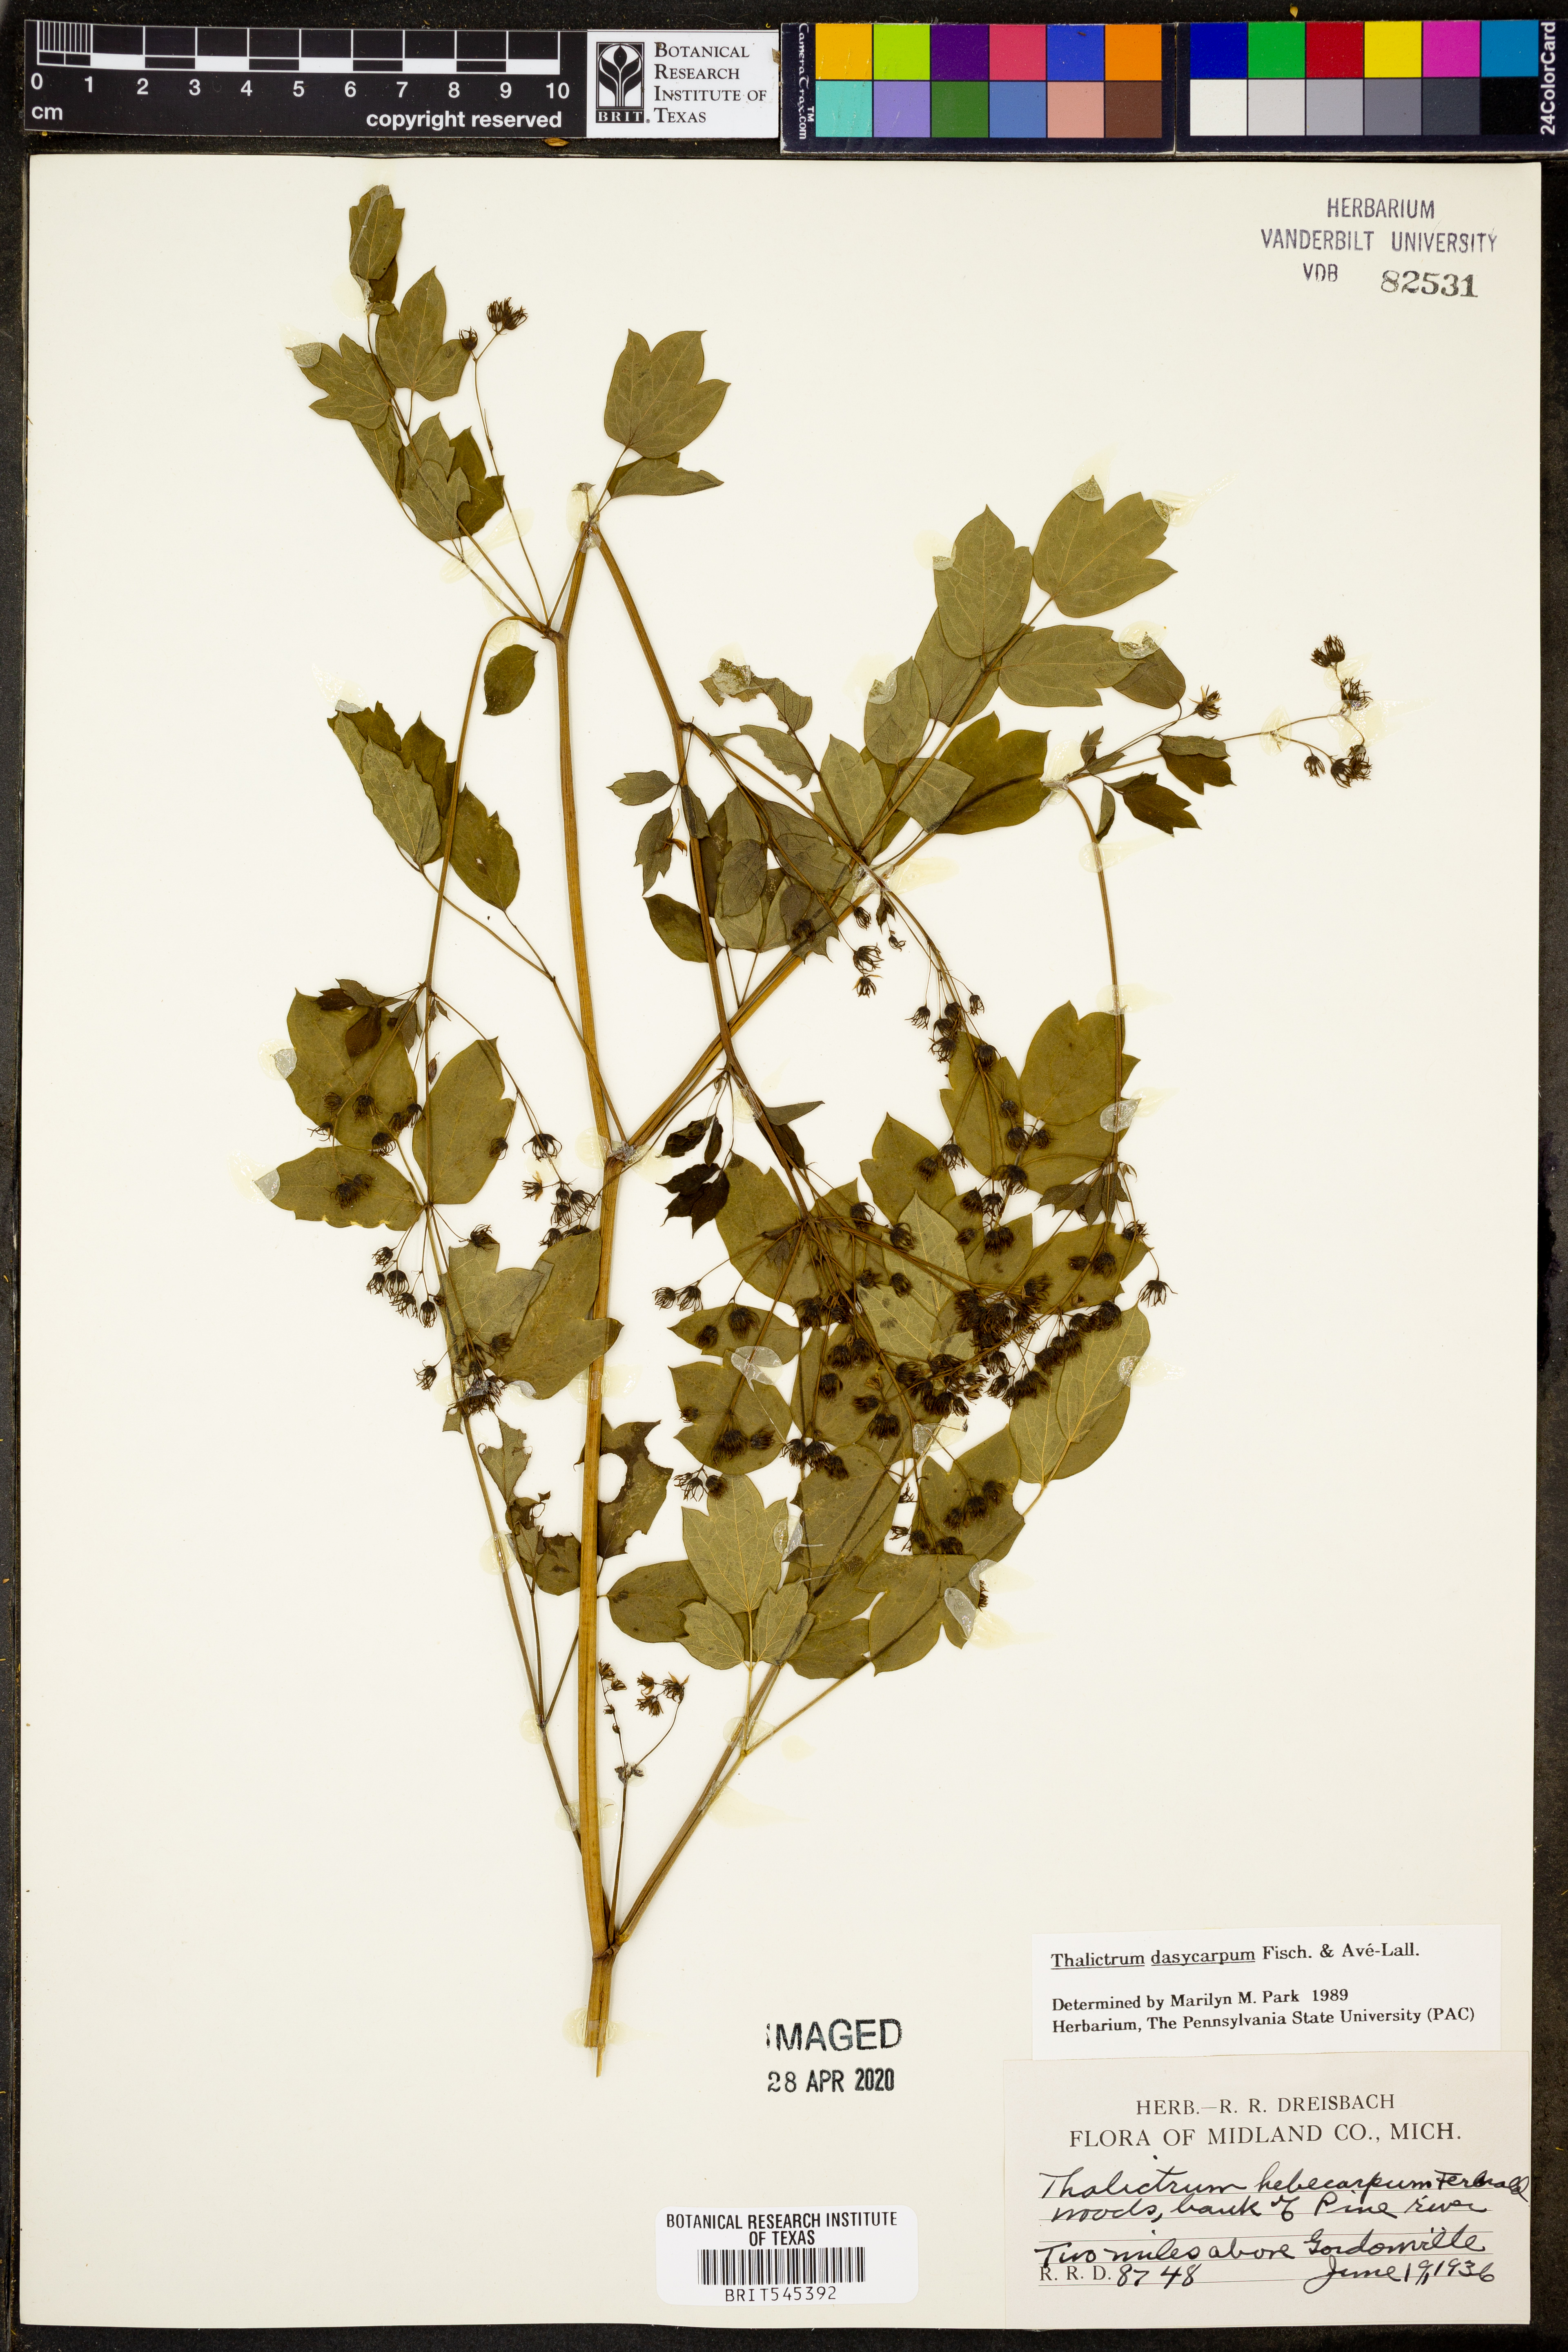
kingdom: Plantae
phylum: Tracheophyta
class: Magnoliopsida
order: Ranunculales
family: Ranunculaceae
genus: Thalictrum
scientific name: Thalictrum dasycarpum
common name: Purple meadow-rue
